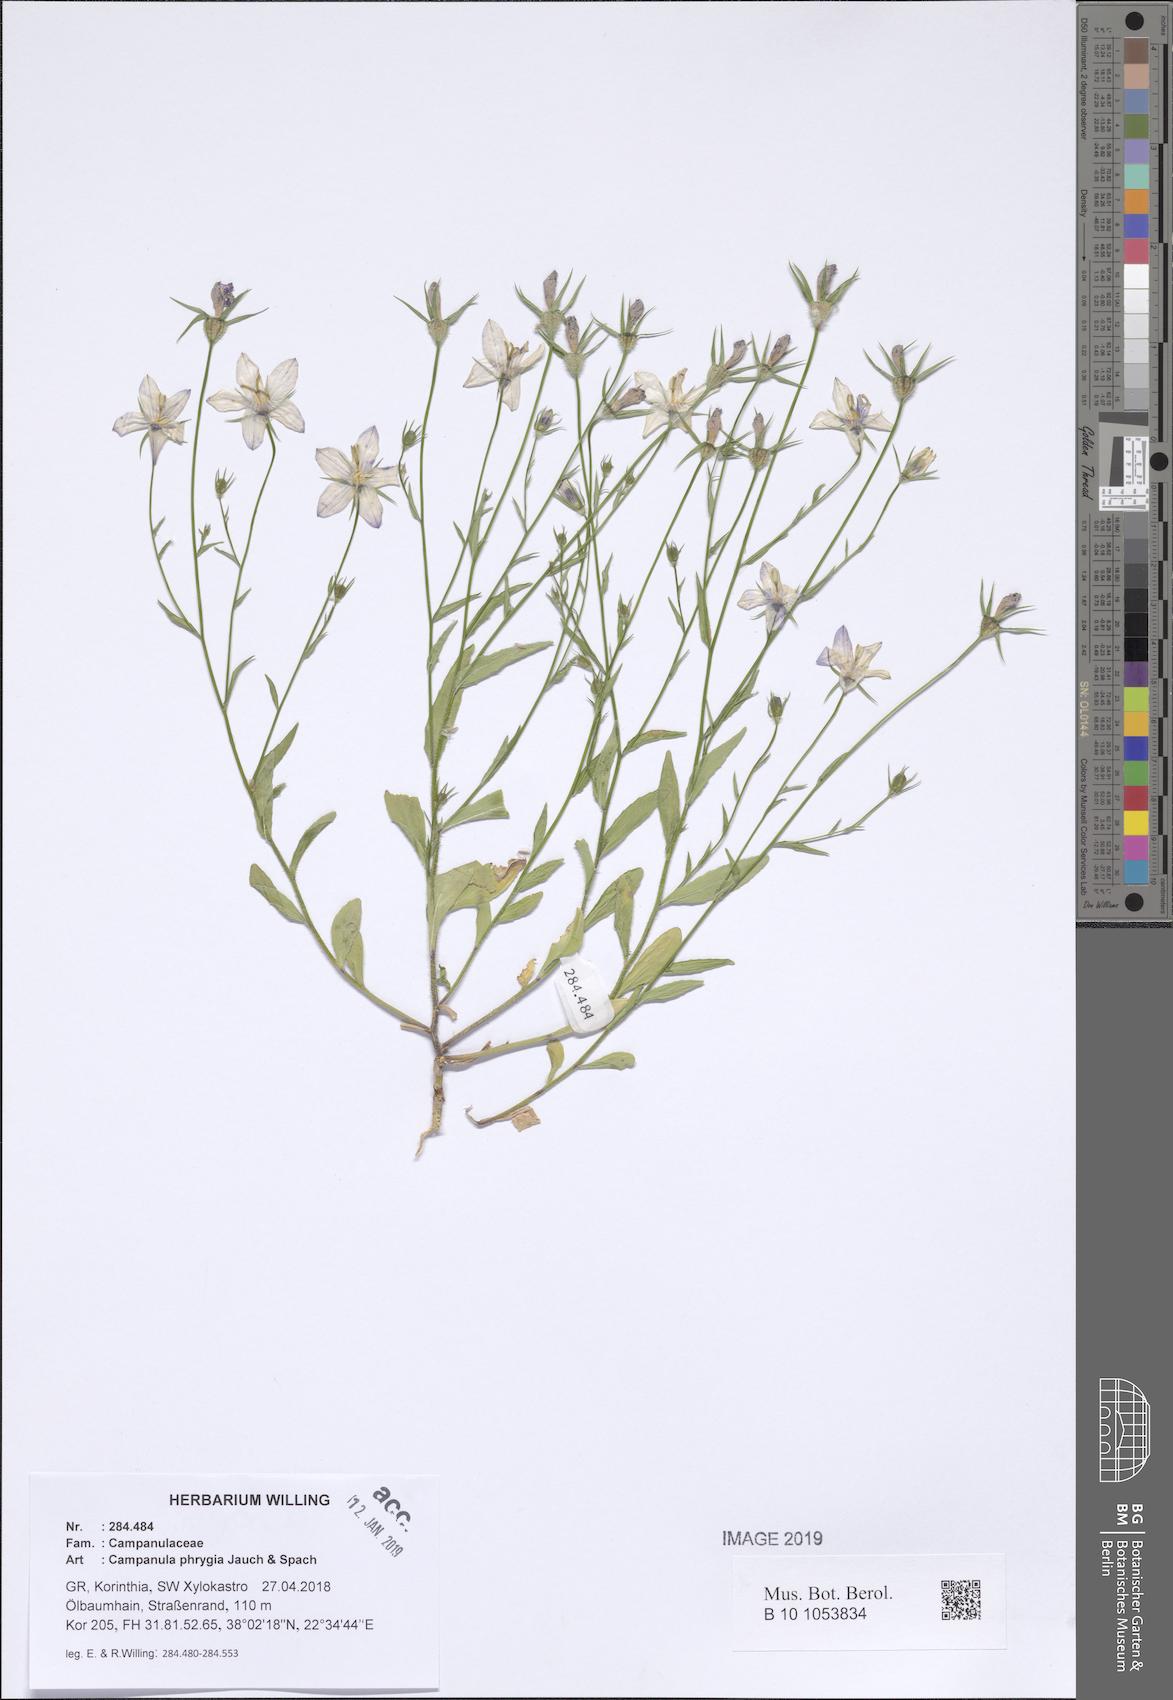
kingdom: Plantae
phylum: Tracheophyta
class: Magnoliopsida
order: Asterales
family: Campanulaceae
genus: Campanula
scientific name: Campanula phrygia
